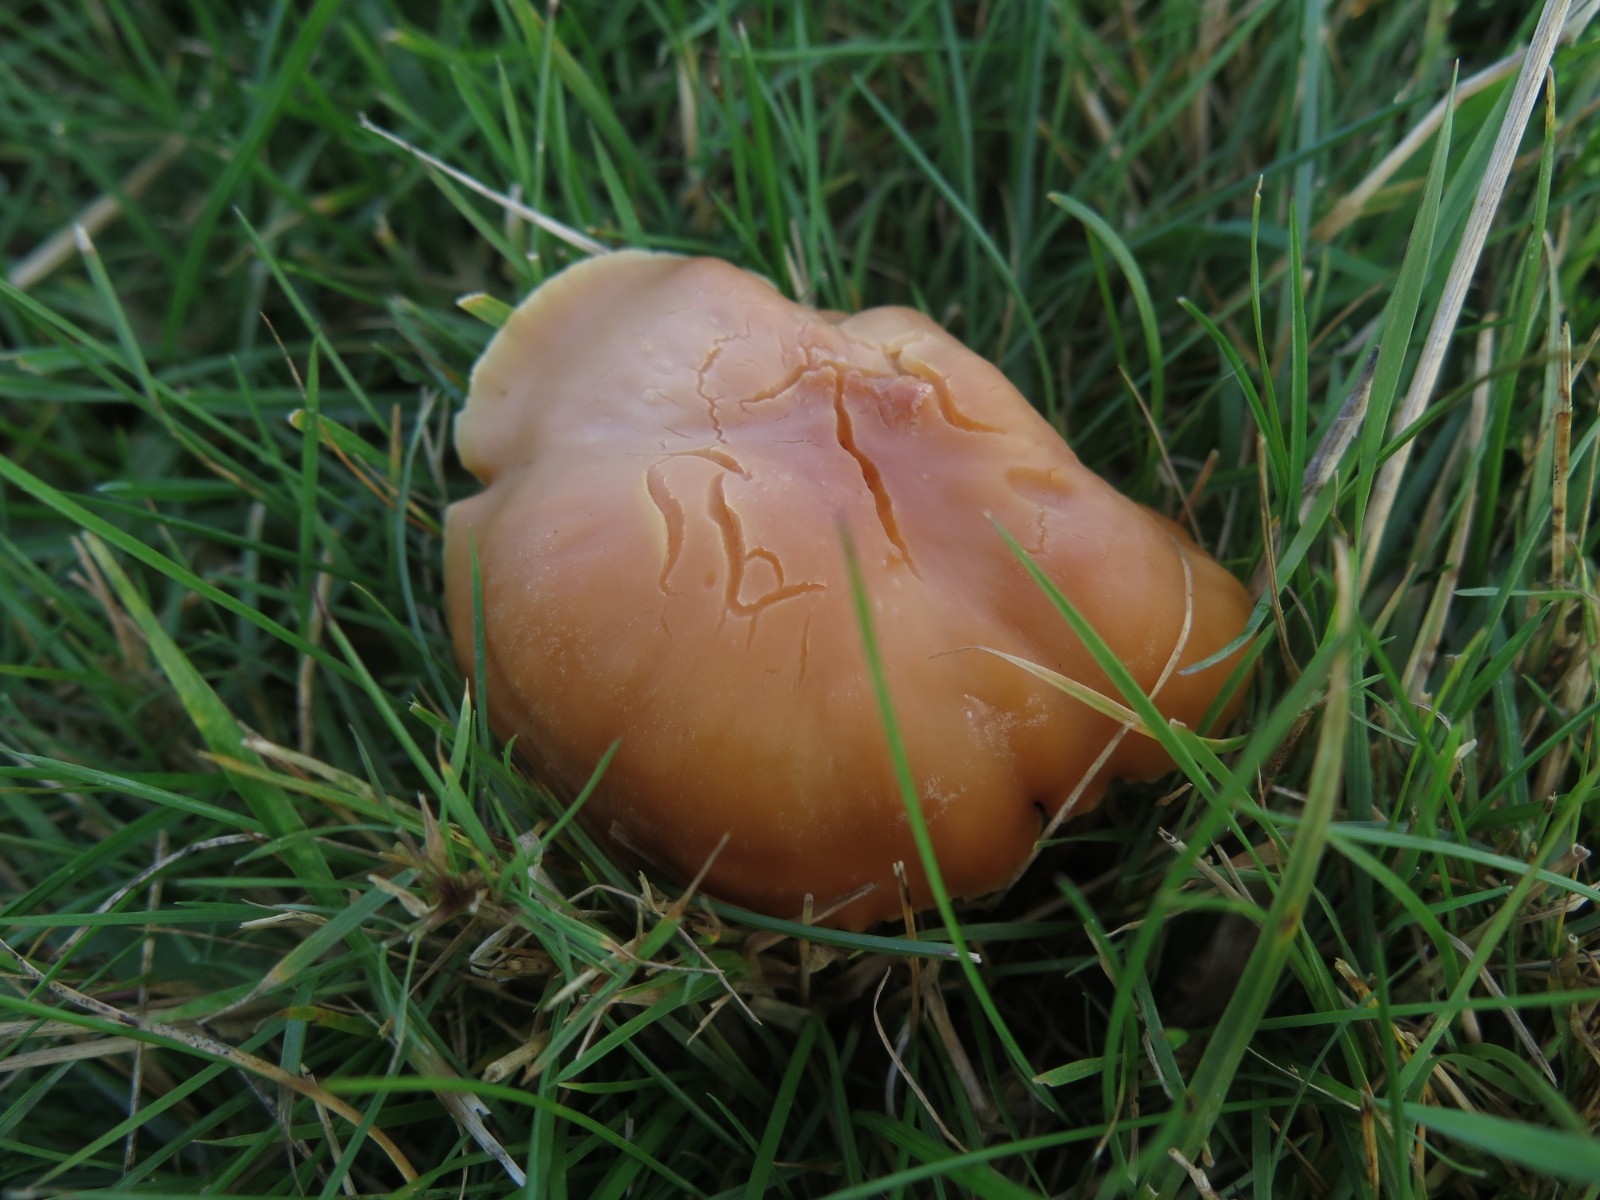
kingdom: Fungi
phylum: Basidiomycota
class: Agaricomycetes
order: Agaricales
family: Hygrophoraceae
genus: Cuphophyllus
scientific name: Cuphophyllus pratensis
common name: eng-vokshat
